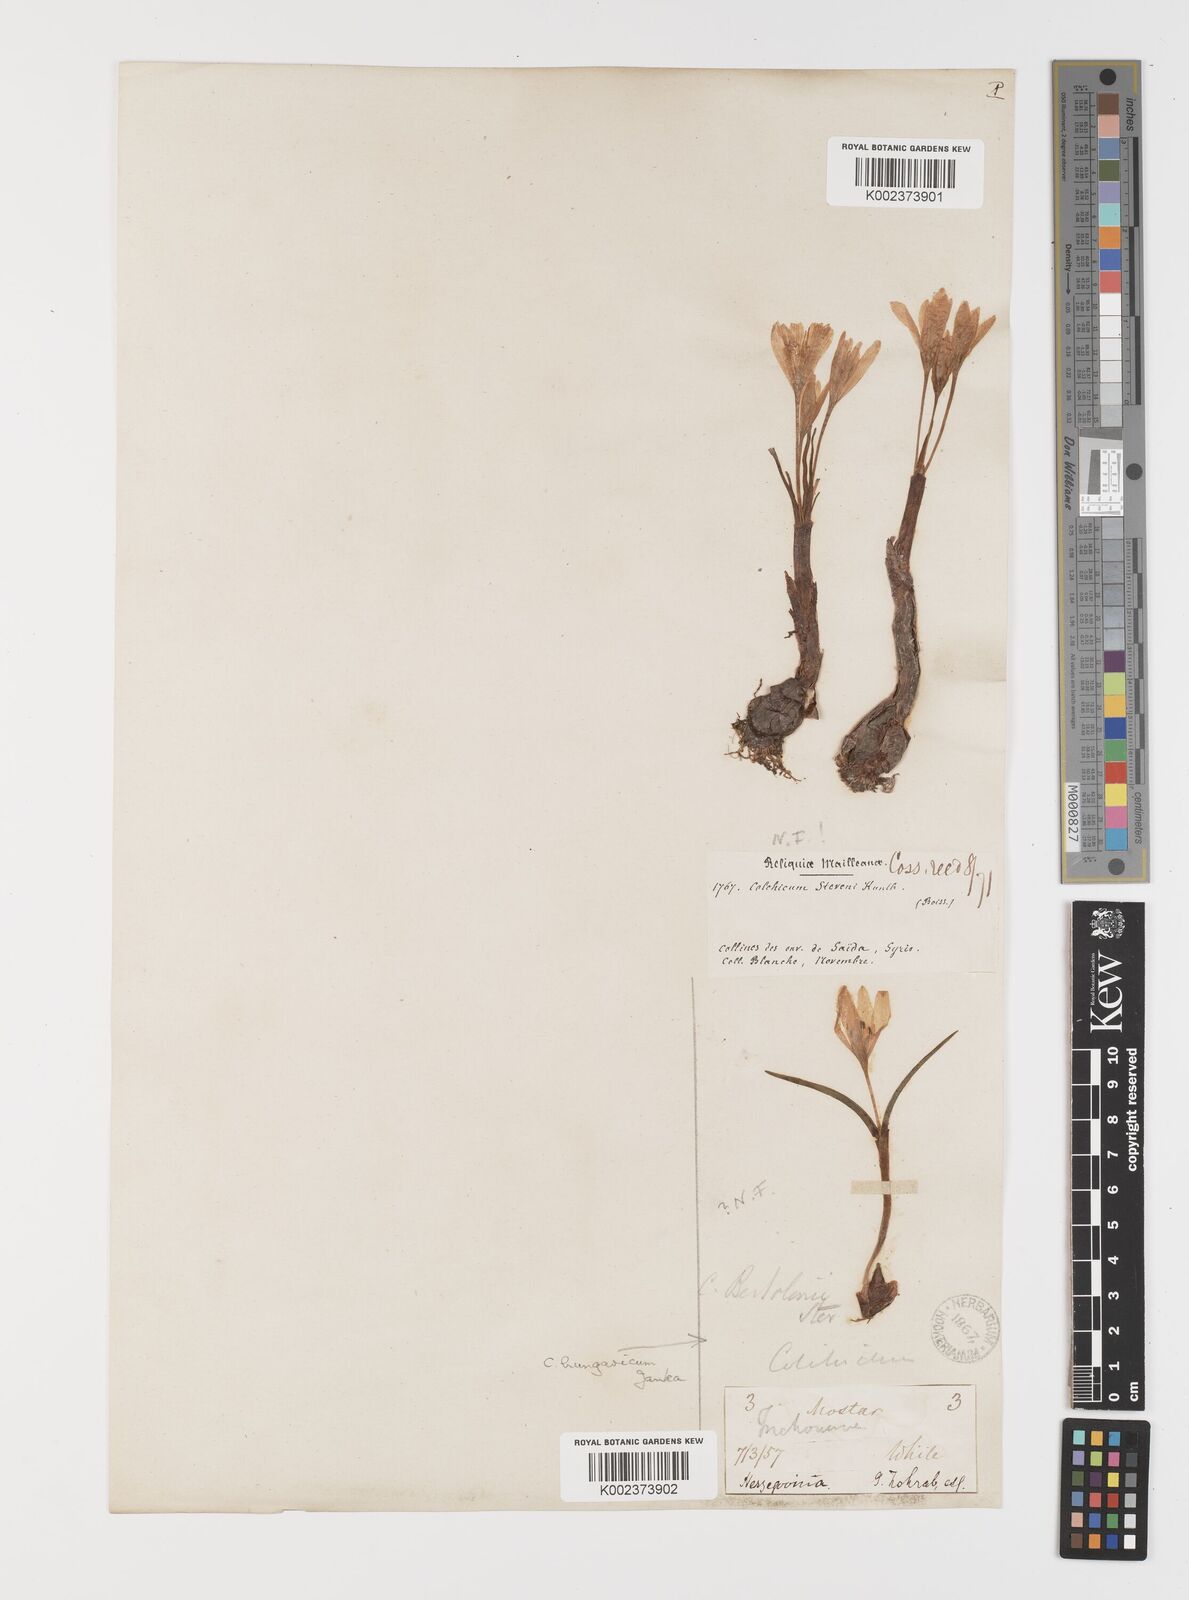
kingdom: Plantae
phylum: Tracheophyta
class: Liliopsida
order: Liliales
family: Colchicaceae
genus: Colchicum
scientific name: Colchicum stevenii
